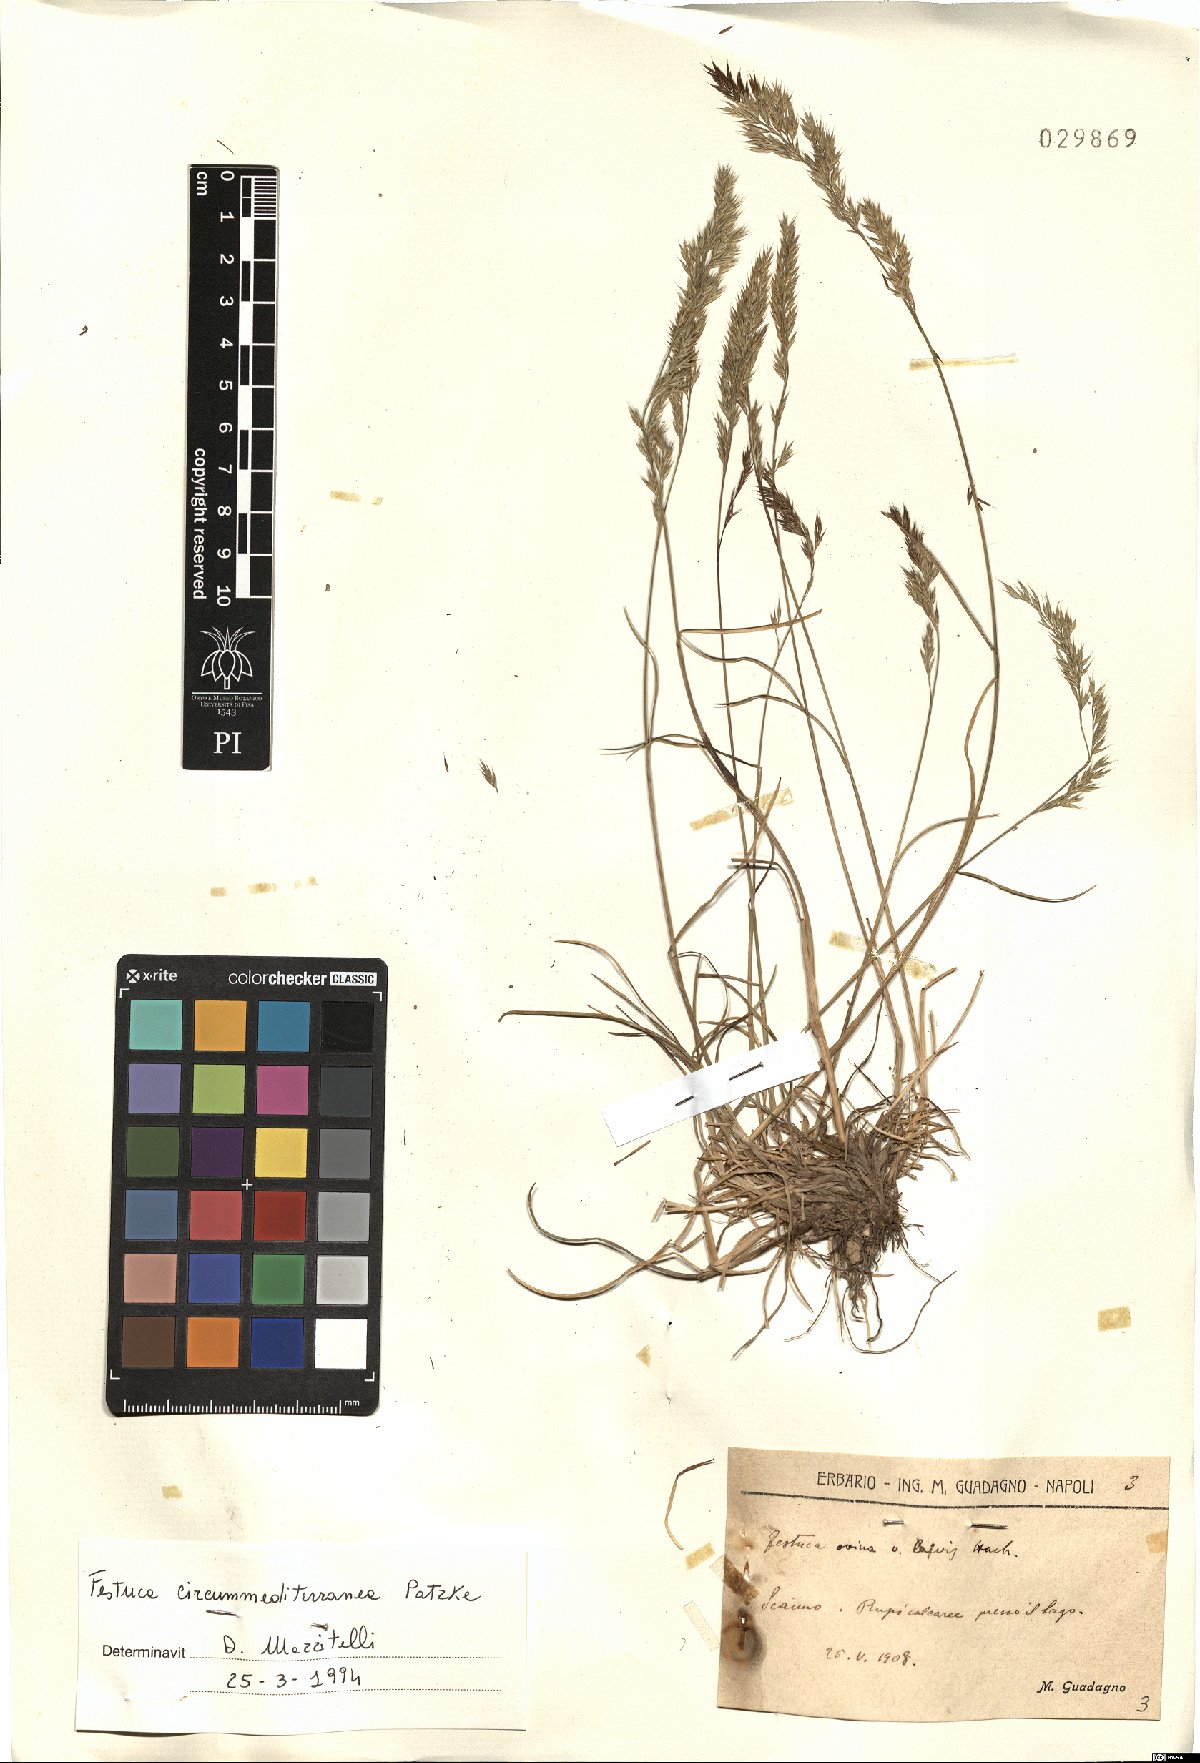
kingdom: Plantae
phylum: Tracheophyta
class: Liliopsida
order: Poales
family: Poaceae
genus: Festuca
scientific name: Festuca circummediterranea
